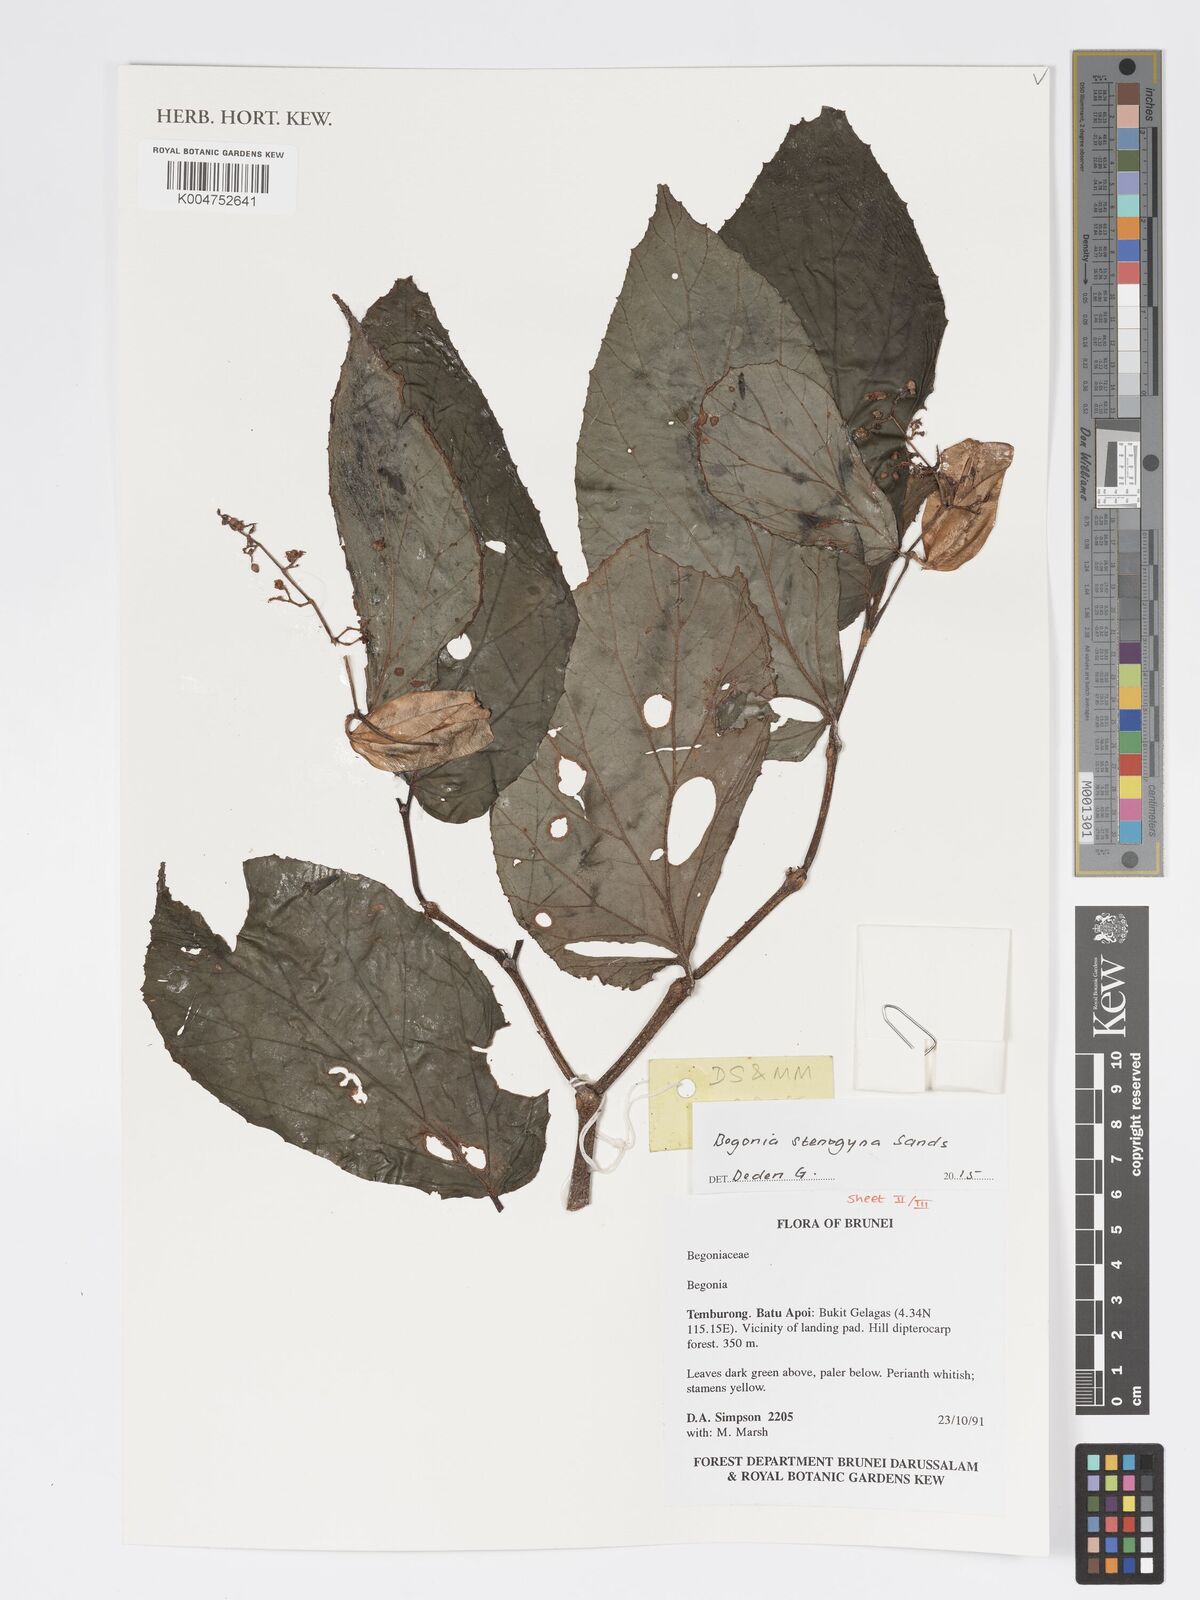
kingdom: Plantae
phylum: Tracheophyta
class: Magnoliopsida
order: Cucurbitales
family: Begoniaceae
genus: Begonia
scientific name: Begonia stenogyna
